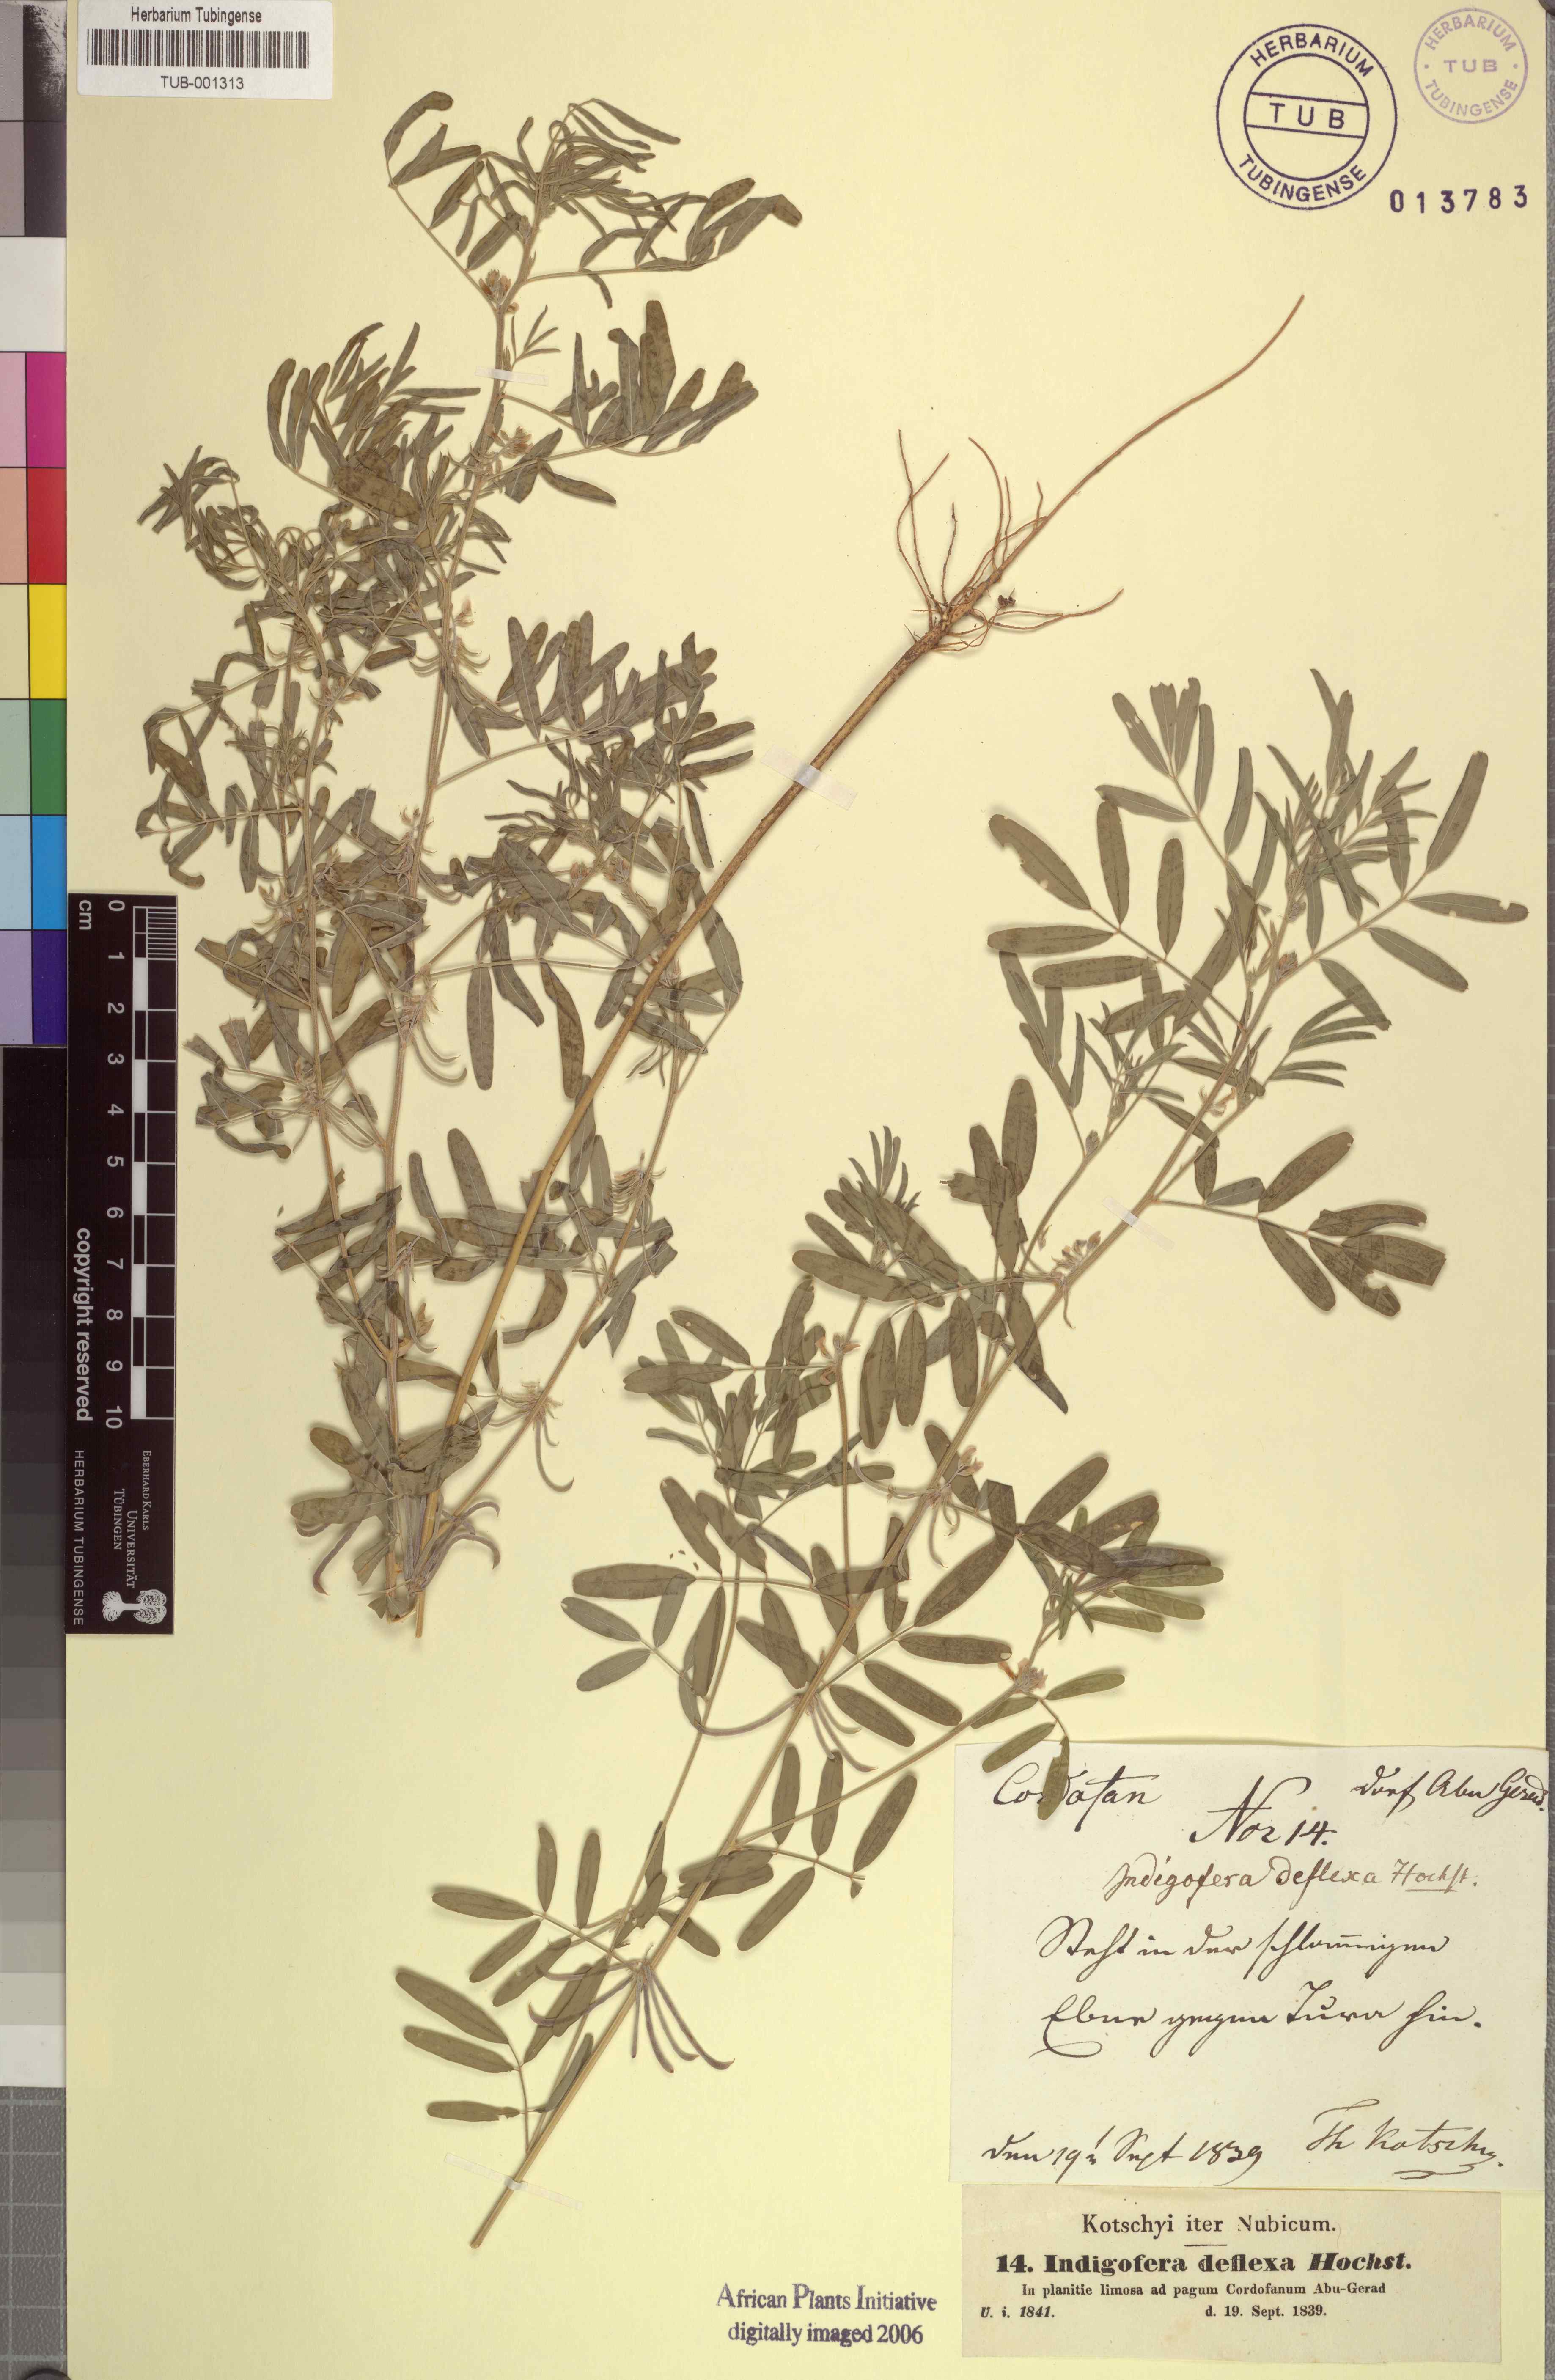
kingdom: Plantae
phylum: Tracheophyta
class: Magnoliopsida
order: Fabales
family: Fabaceae
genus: Indigastrum
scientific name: Indigastrum parviflorum
